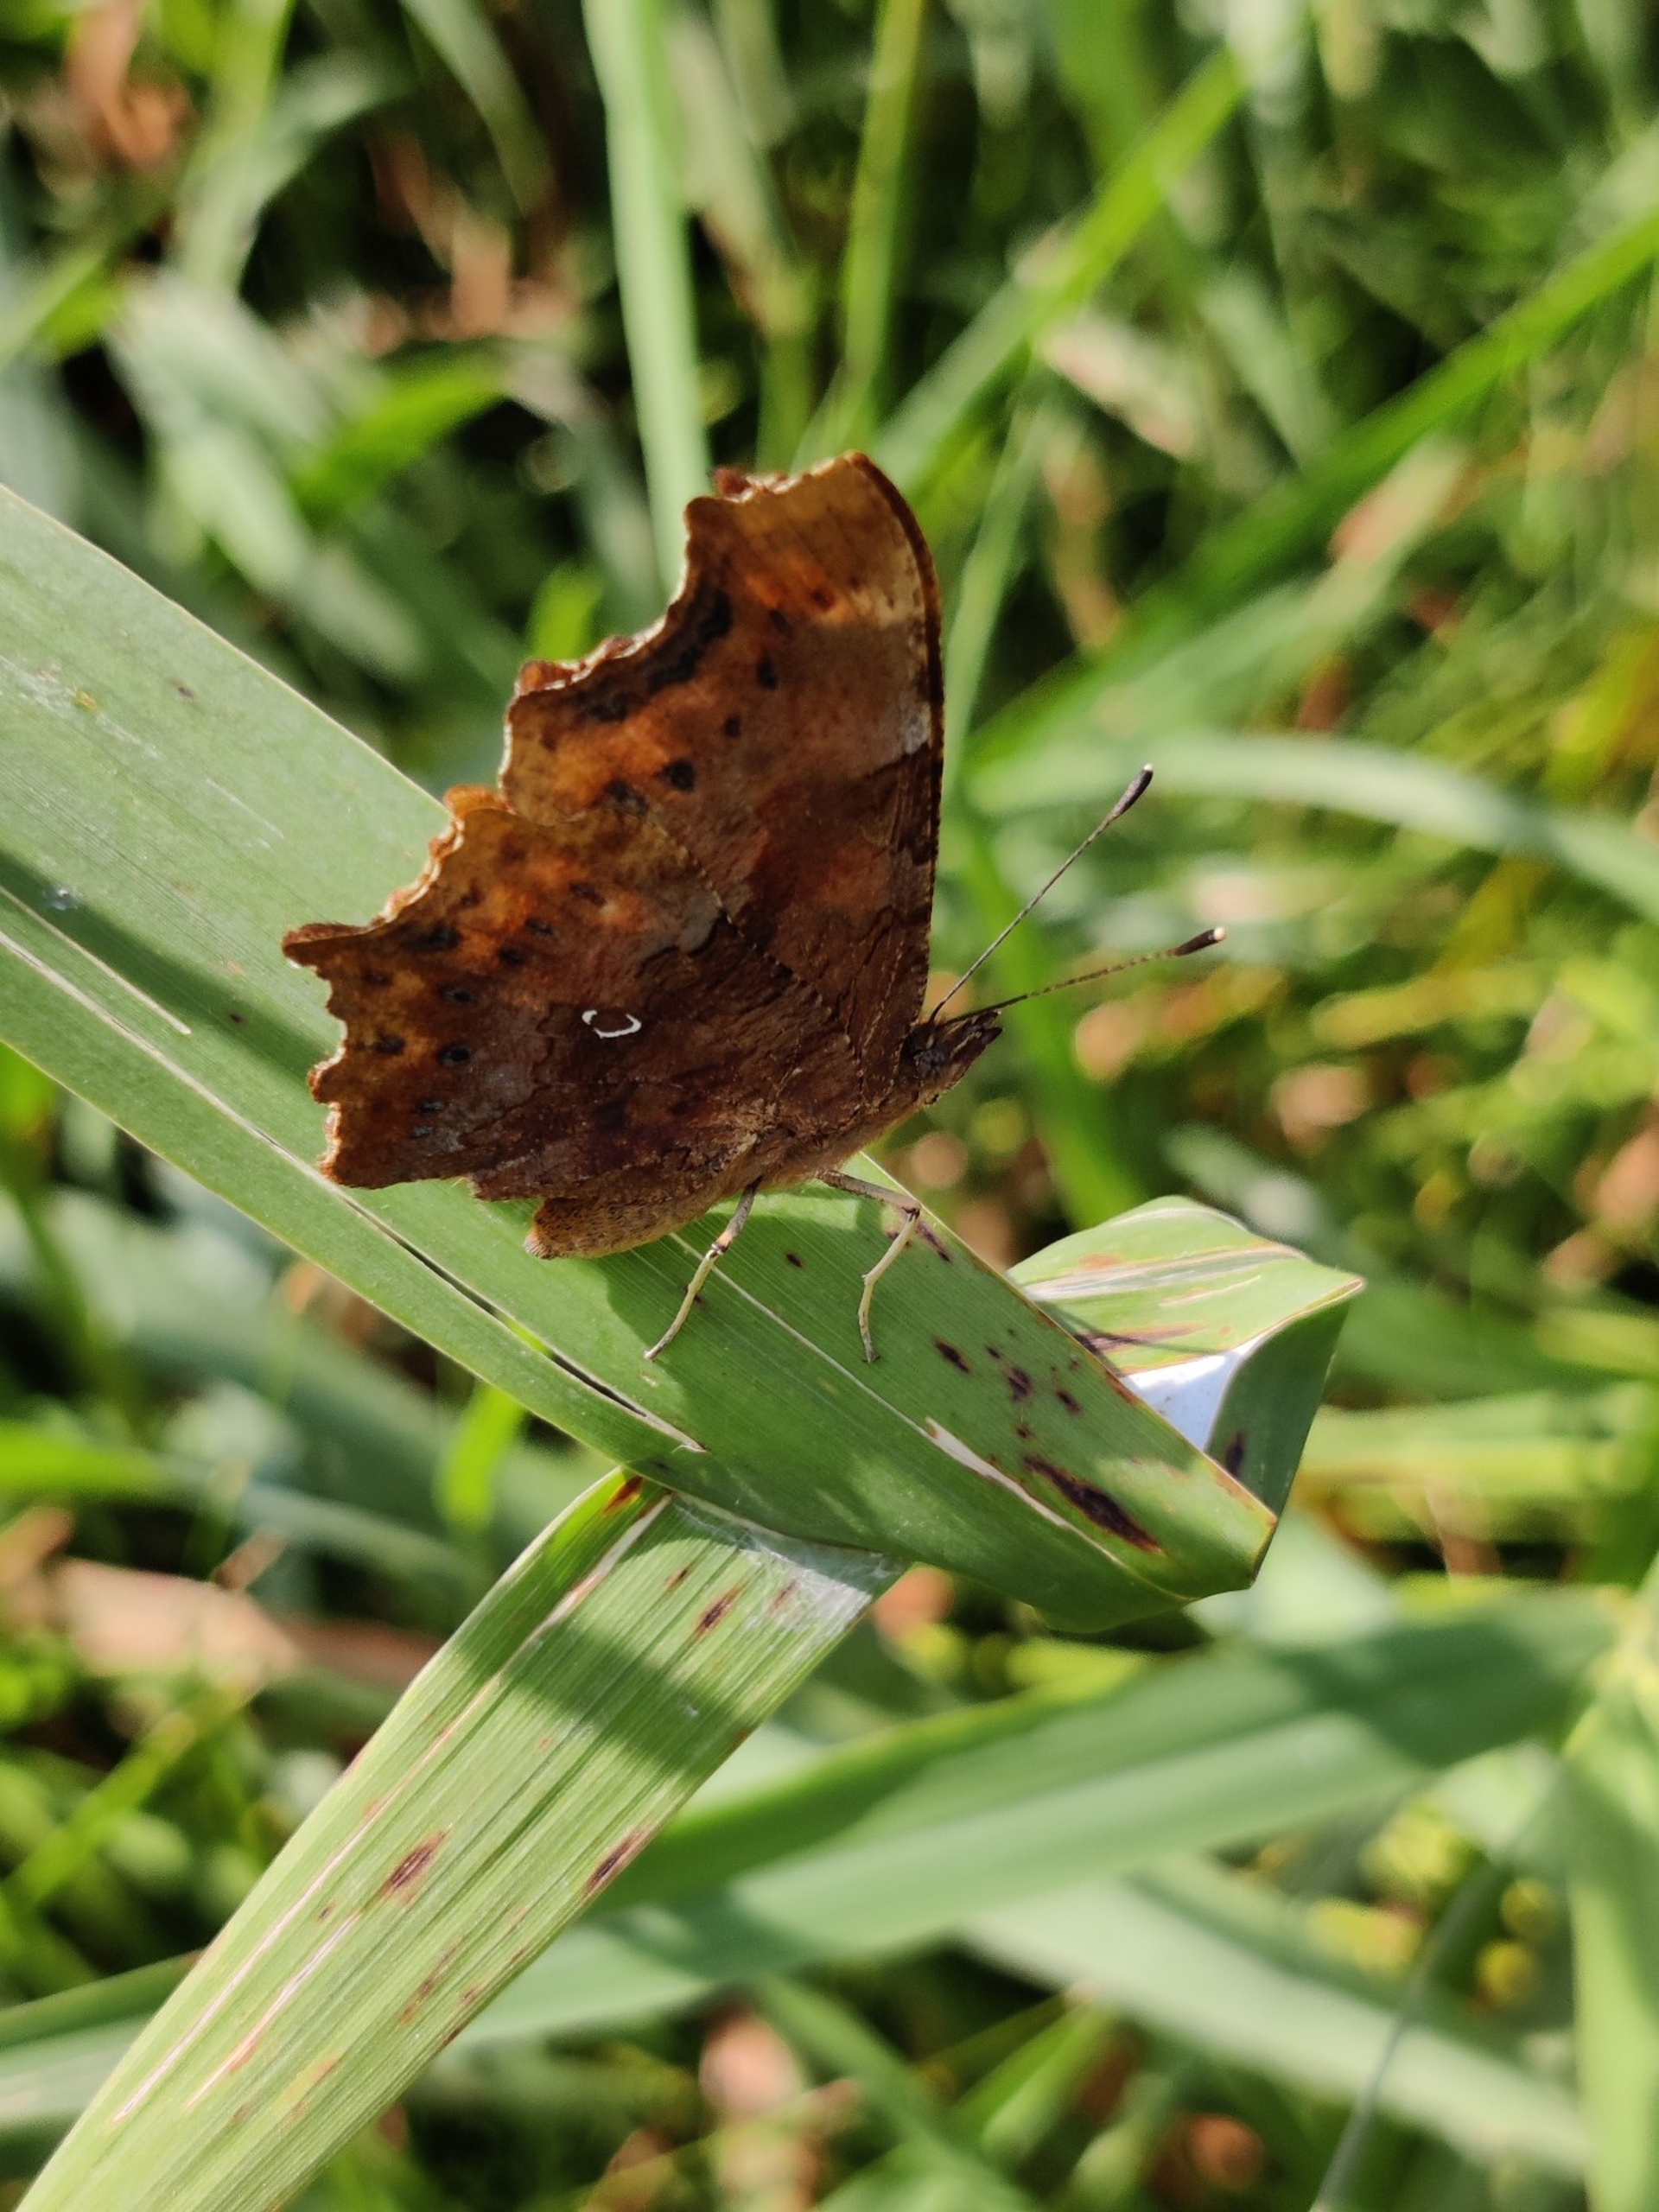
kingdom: Animalia
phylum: Arthropoda
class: Insecta
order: Lepidoptera
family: Nymphalidae
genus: Polygonia
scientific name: Polygonia c-album
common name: Det hvide C
